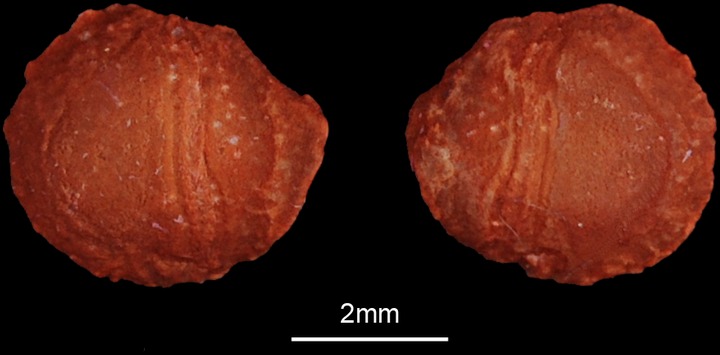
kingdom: Animalia
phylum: Chordata
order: Atheriniformes
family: Atherinidae
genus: Atherinomorus
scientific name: Atherinomorus lacunosus
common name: Hardyhead silverside
